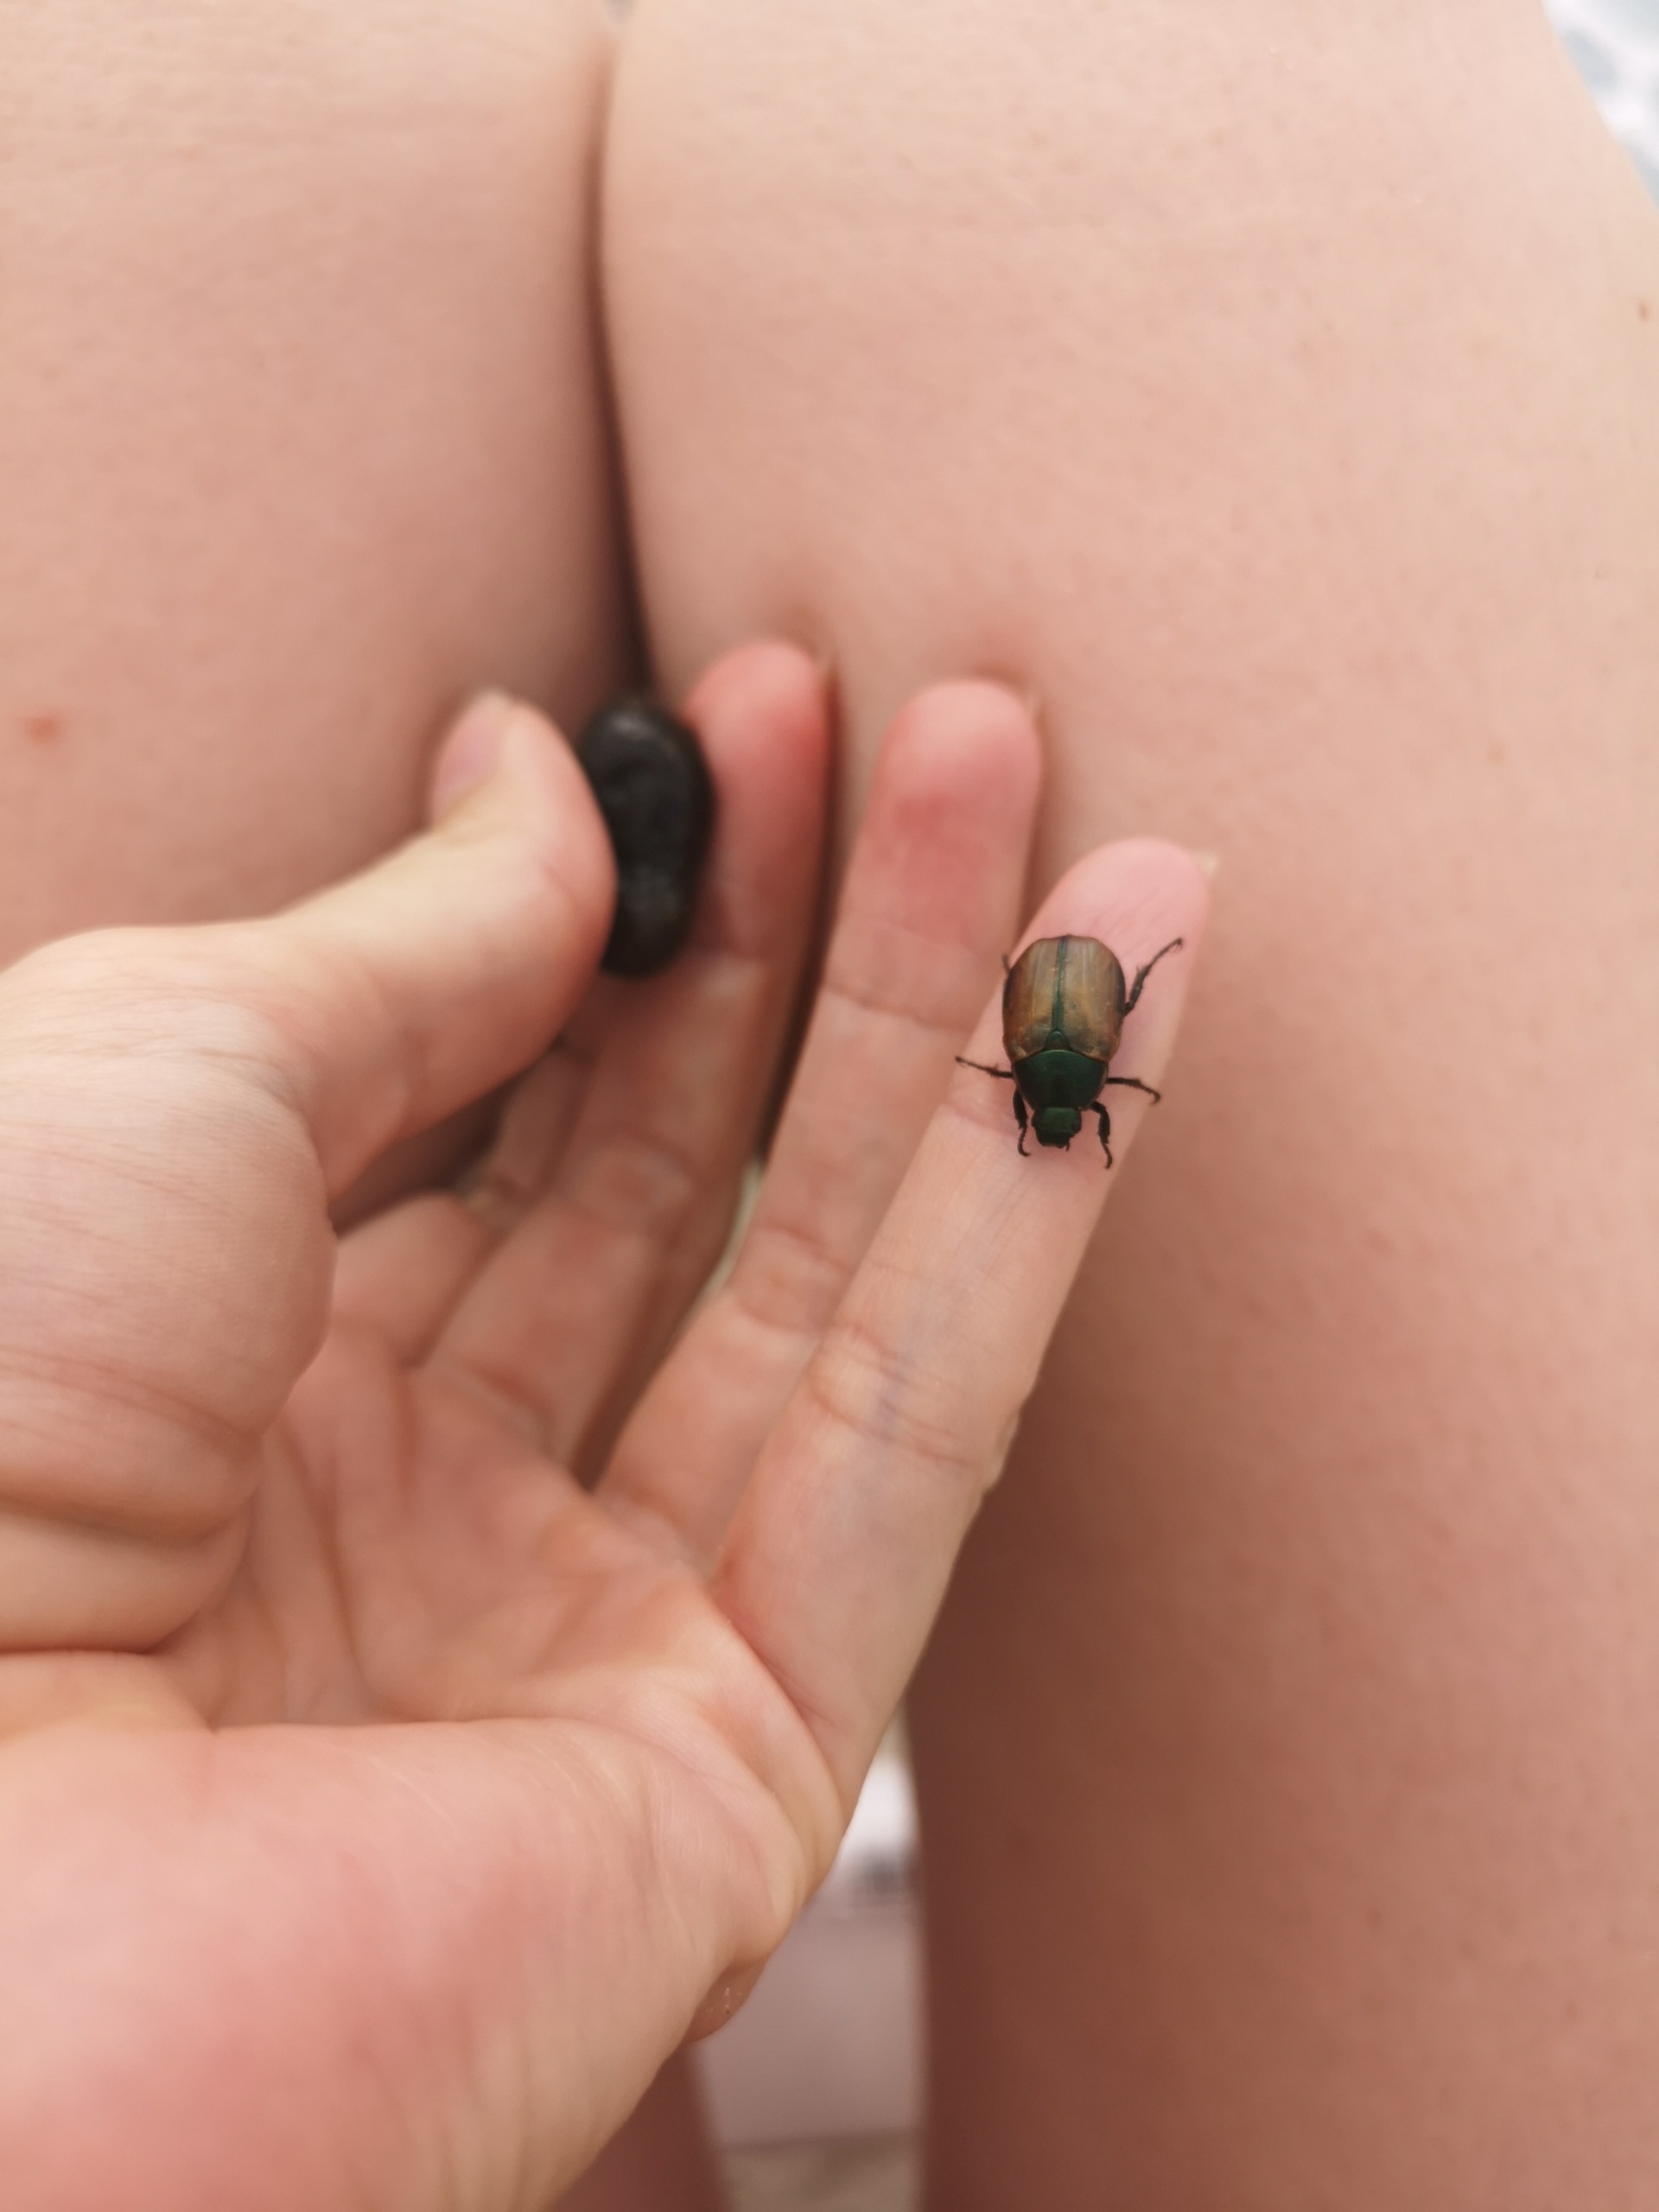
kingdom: Animalia
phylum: Arthropoda
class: Insecta
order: Coleoptera
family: Scarabaeidae
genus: Anomala
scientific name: Anomala dubia
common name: Klitoldenborre
